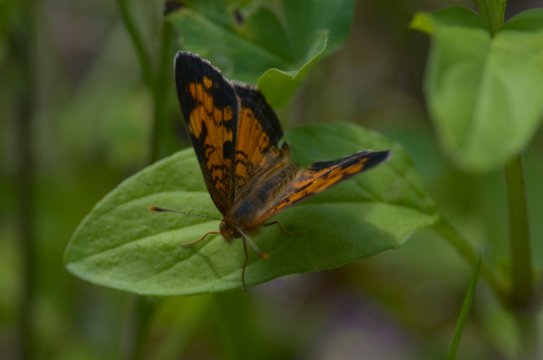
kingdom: Animalia
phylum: Arthropoda
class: Insecta
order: Lepidoptera
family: Nymphalidae
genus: Phyciodes
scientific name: Phyciodes
